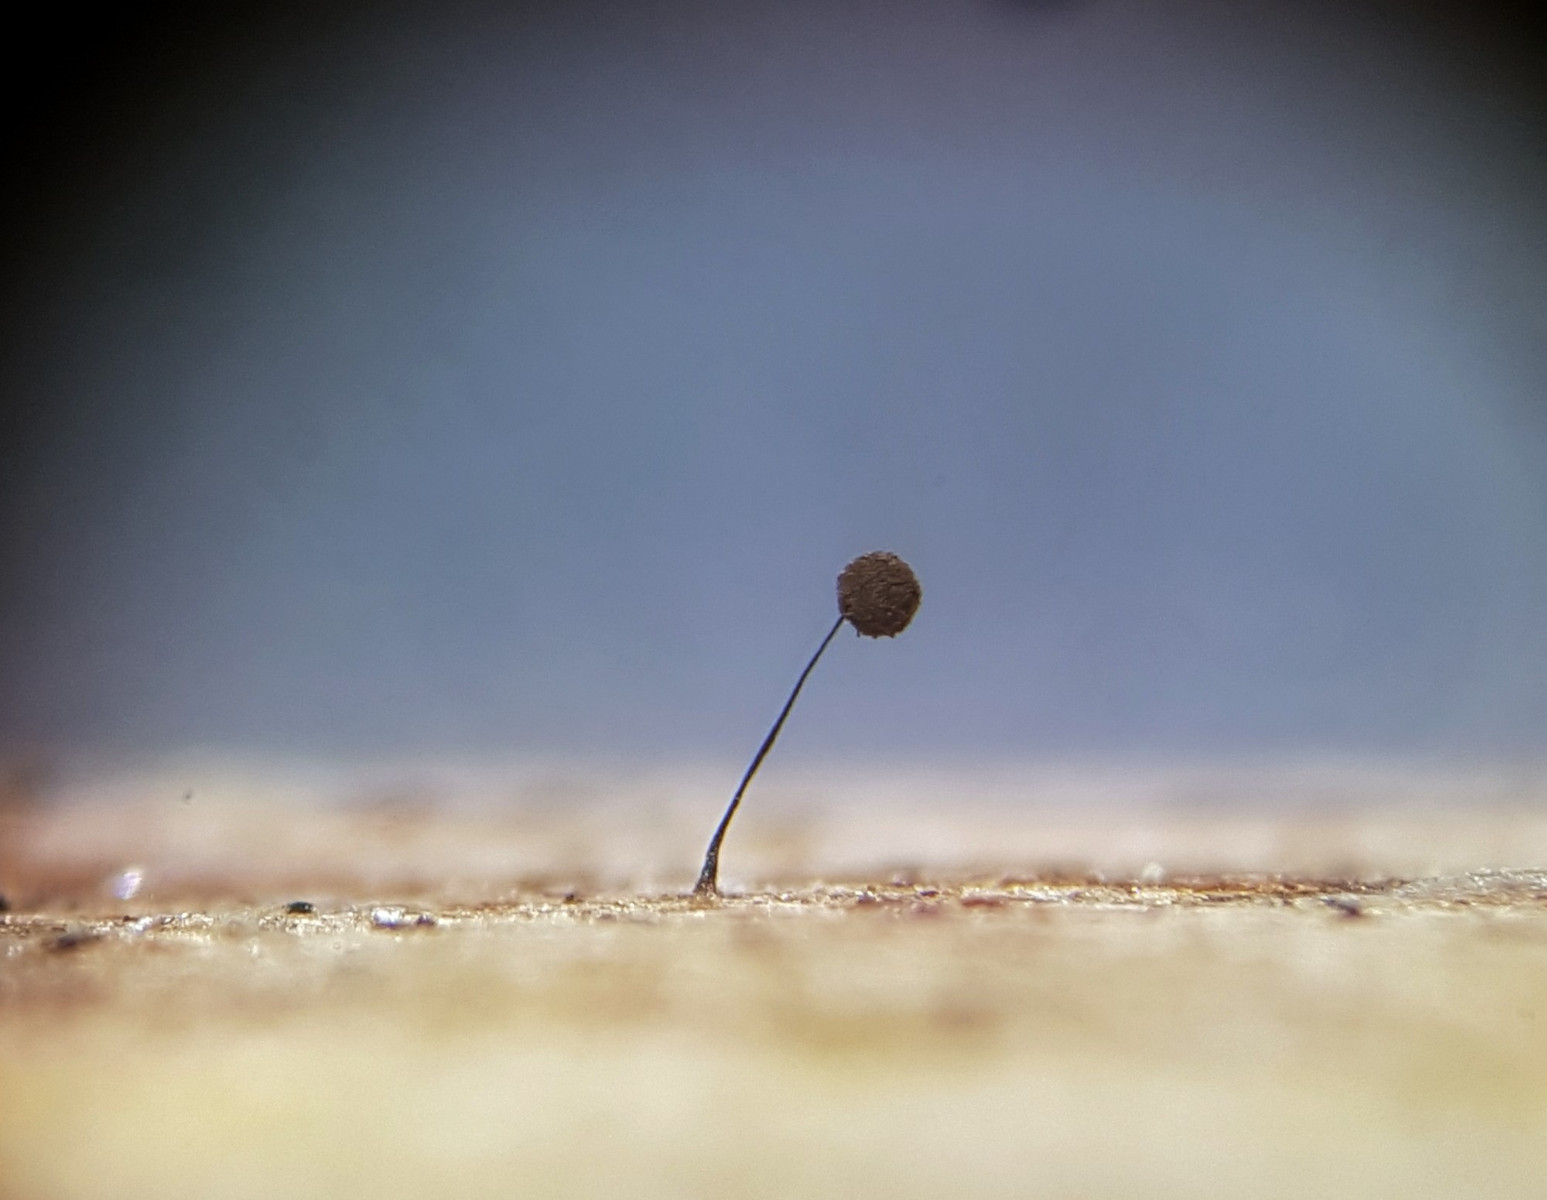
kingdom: Protozoa
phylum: Mycetozoa
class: Myxomycetes
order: Stemonitidales
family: Stemonitidaceae
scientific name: Stemonitidaceae
